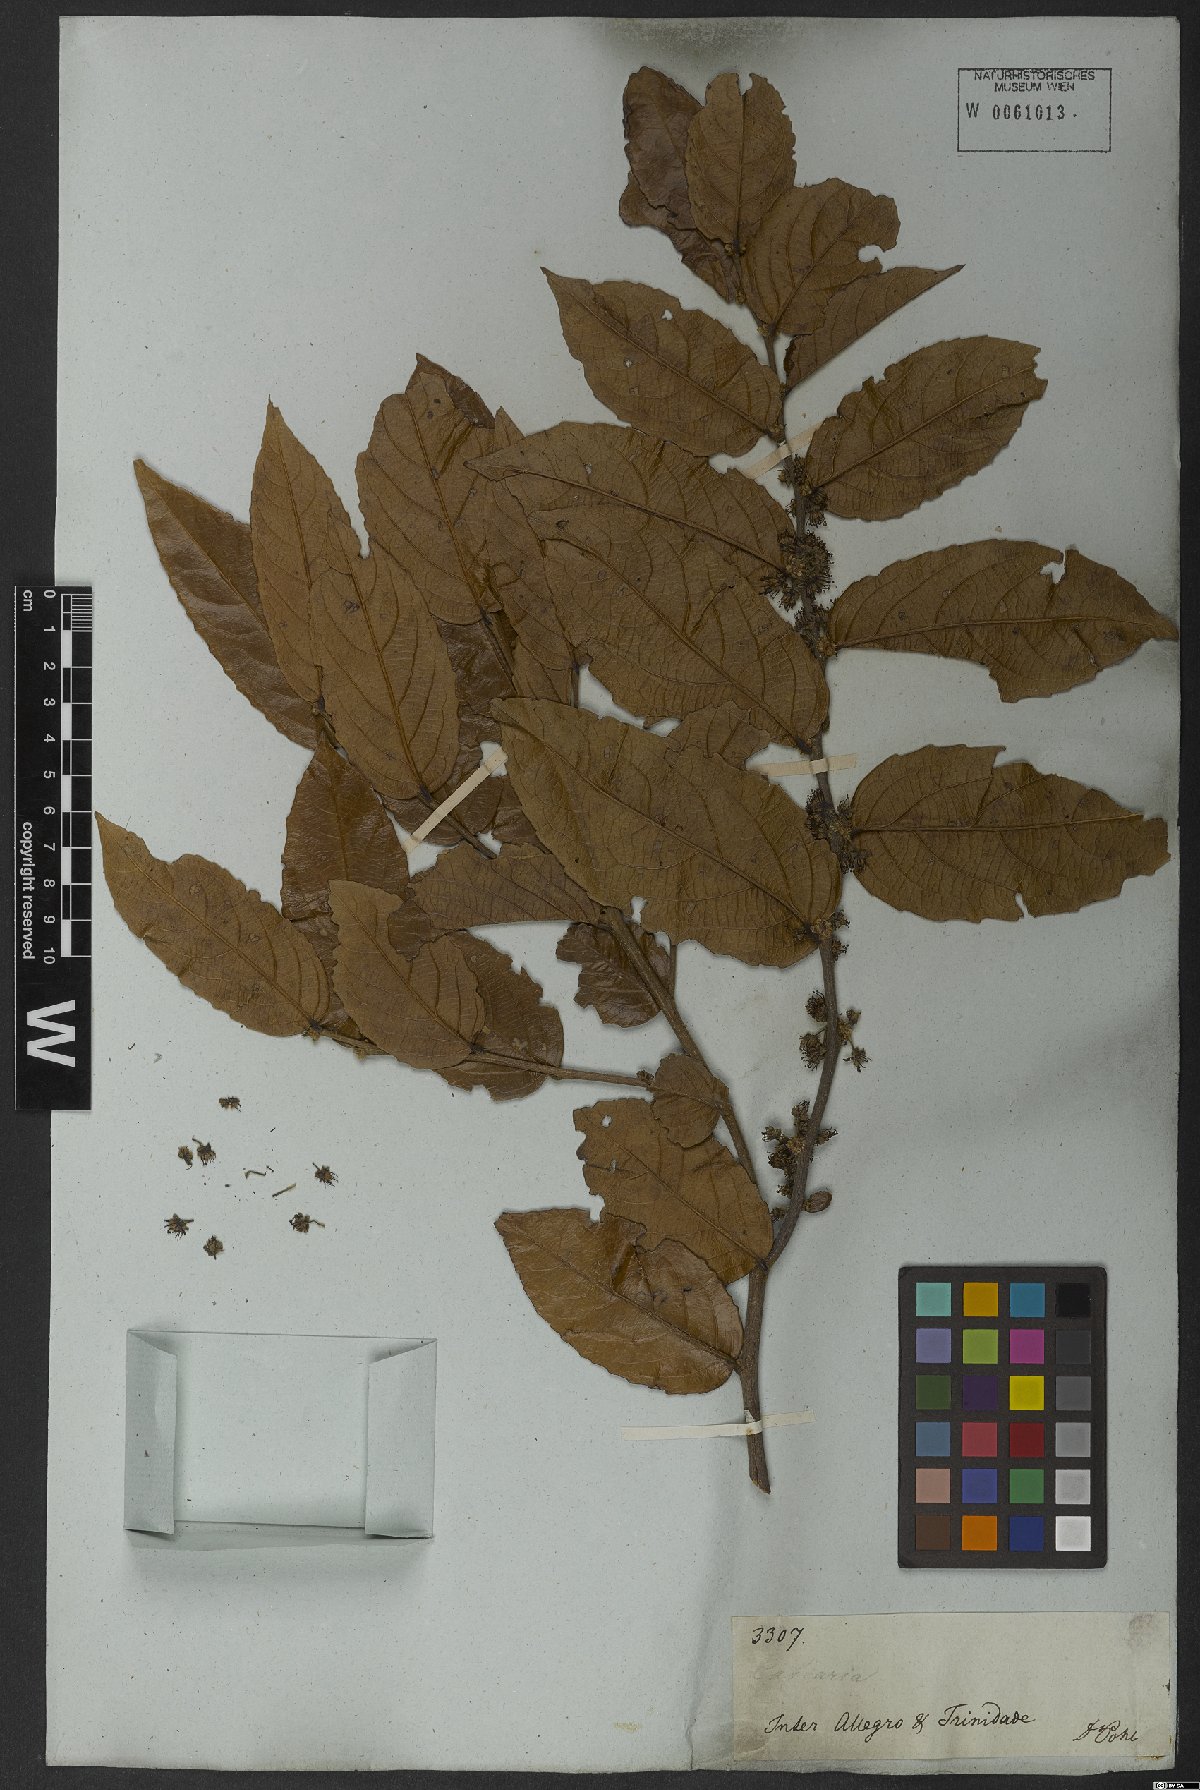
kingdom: Plantae
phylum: Tracheophyta
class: Magnoliopsida
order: Malpighiales
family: Salicaceae
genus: Casearia
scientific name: Casearia
